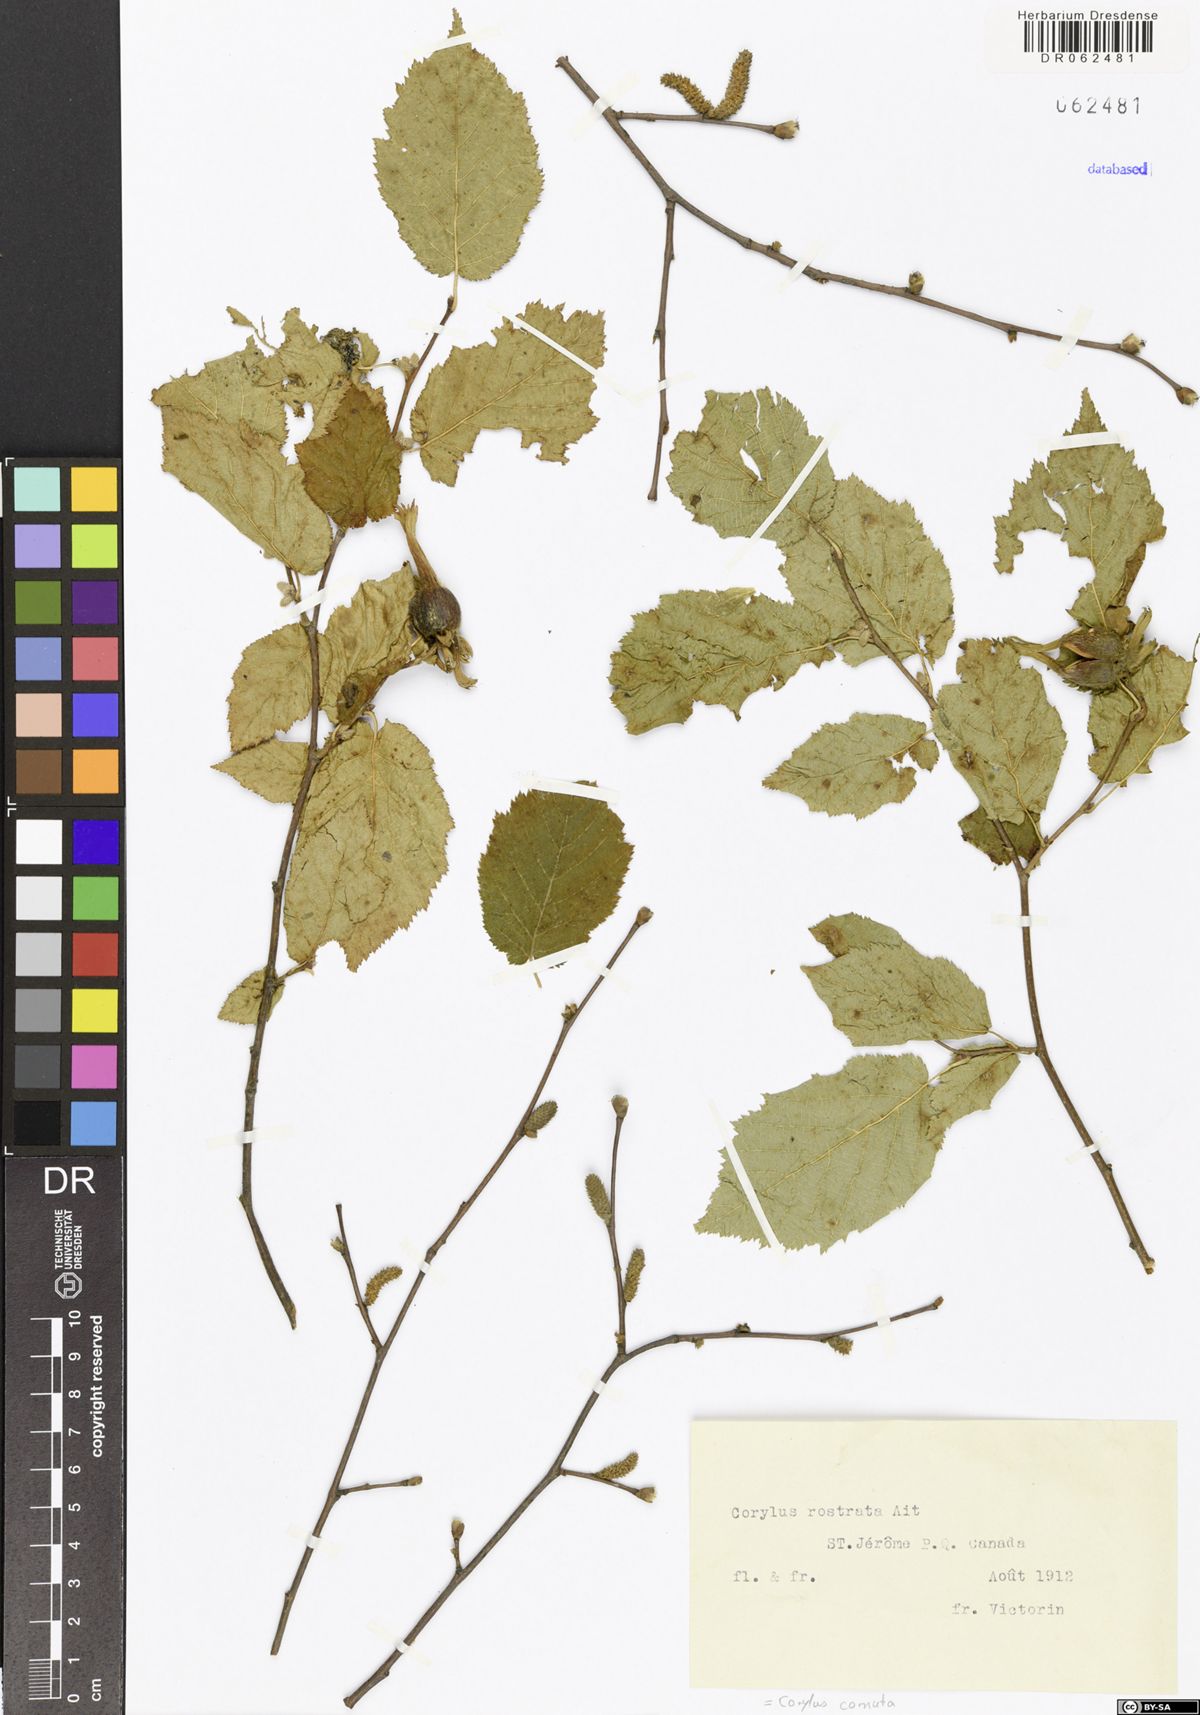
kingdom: Plantae
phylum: Tracheophyta
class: Magnoliopsida
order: Fagales
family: Betulaceae
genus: Corylus
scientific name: Corylus cornuta
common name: Beaked hazel
